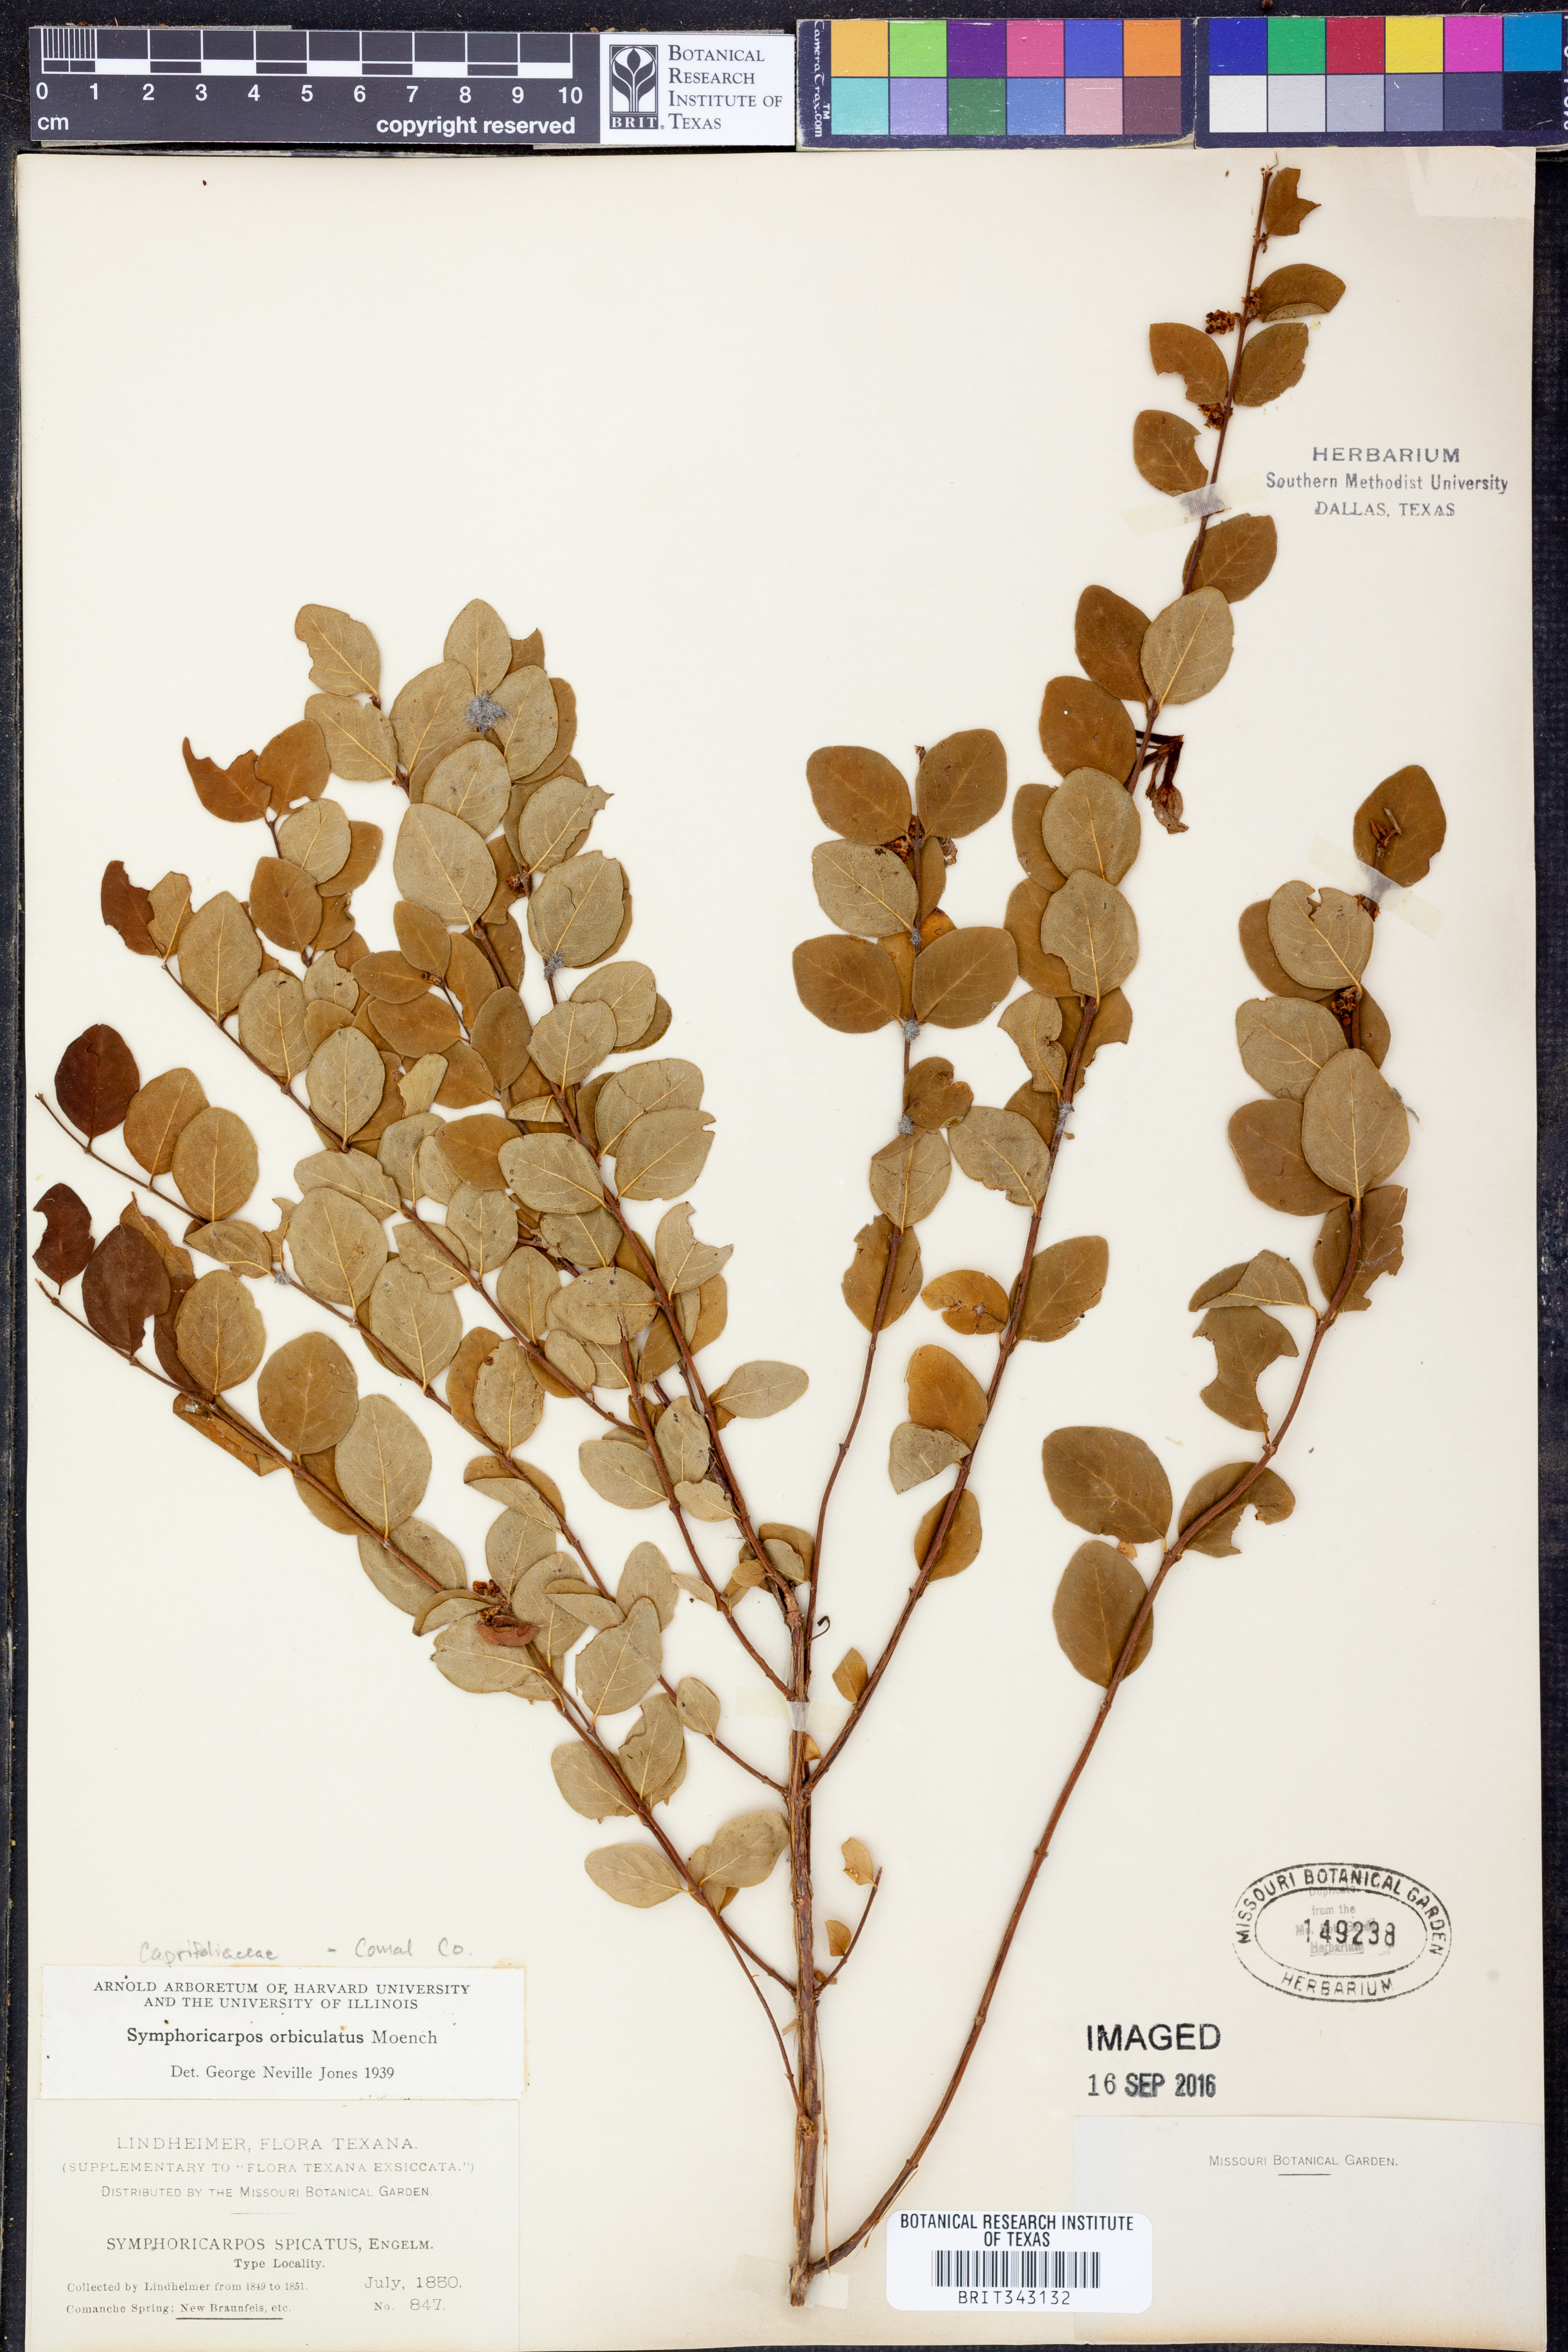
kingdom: Plantae
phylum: Tracheophyta
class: Magnoliopsida
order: Dipsacales
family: Caprifoliaceae
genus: Symphoricarpos
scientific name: Symphoricarpos orbiculatus
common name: Coralberry
